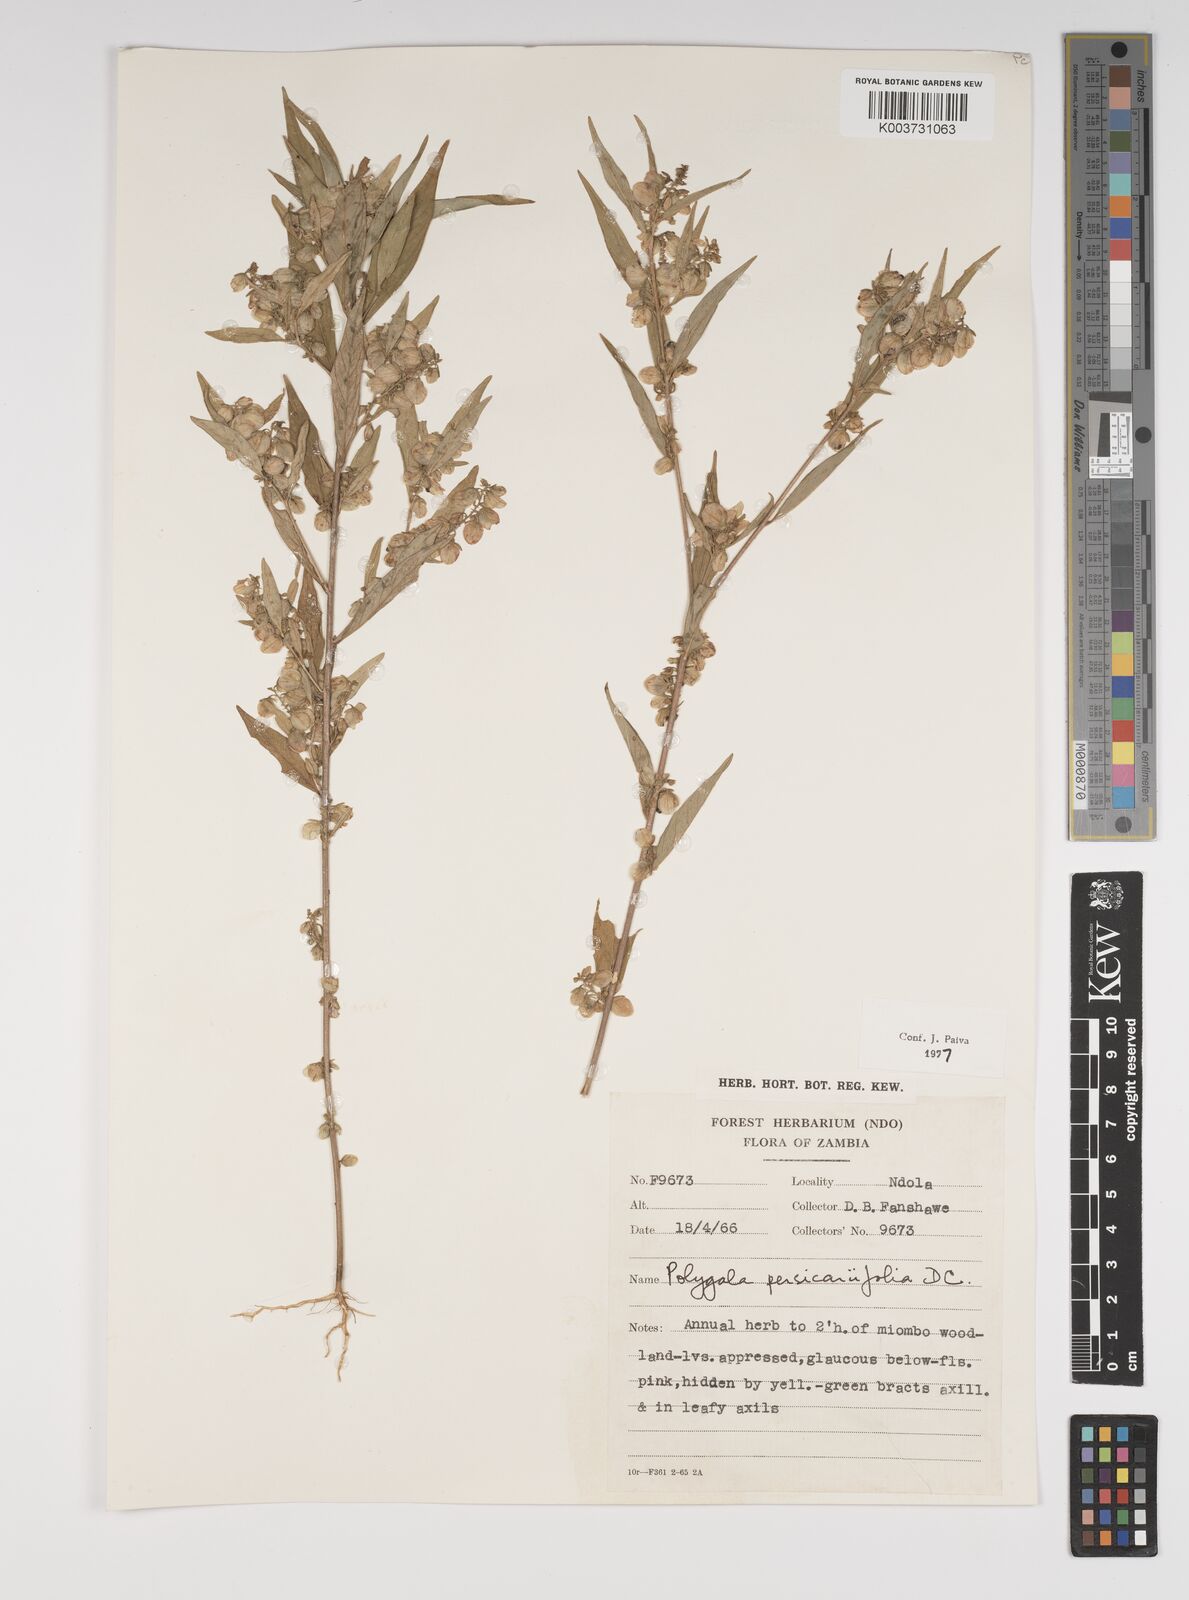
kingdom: Plantae
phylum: Tracheophyta
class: Magnoliopsida
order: Fabales
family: Polygalaceae
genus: Polygala
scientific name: Polygala persicariifolia
